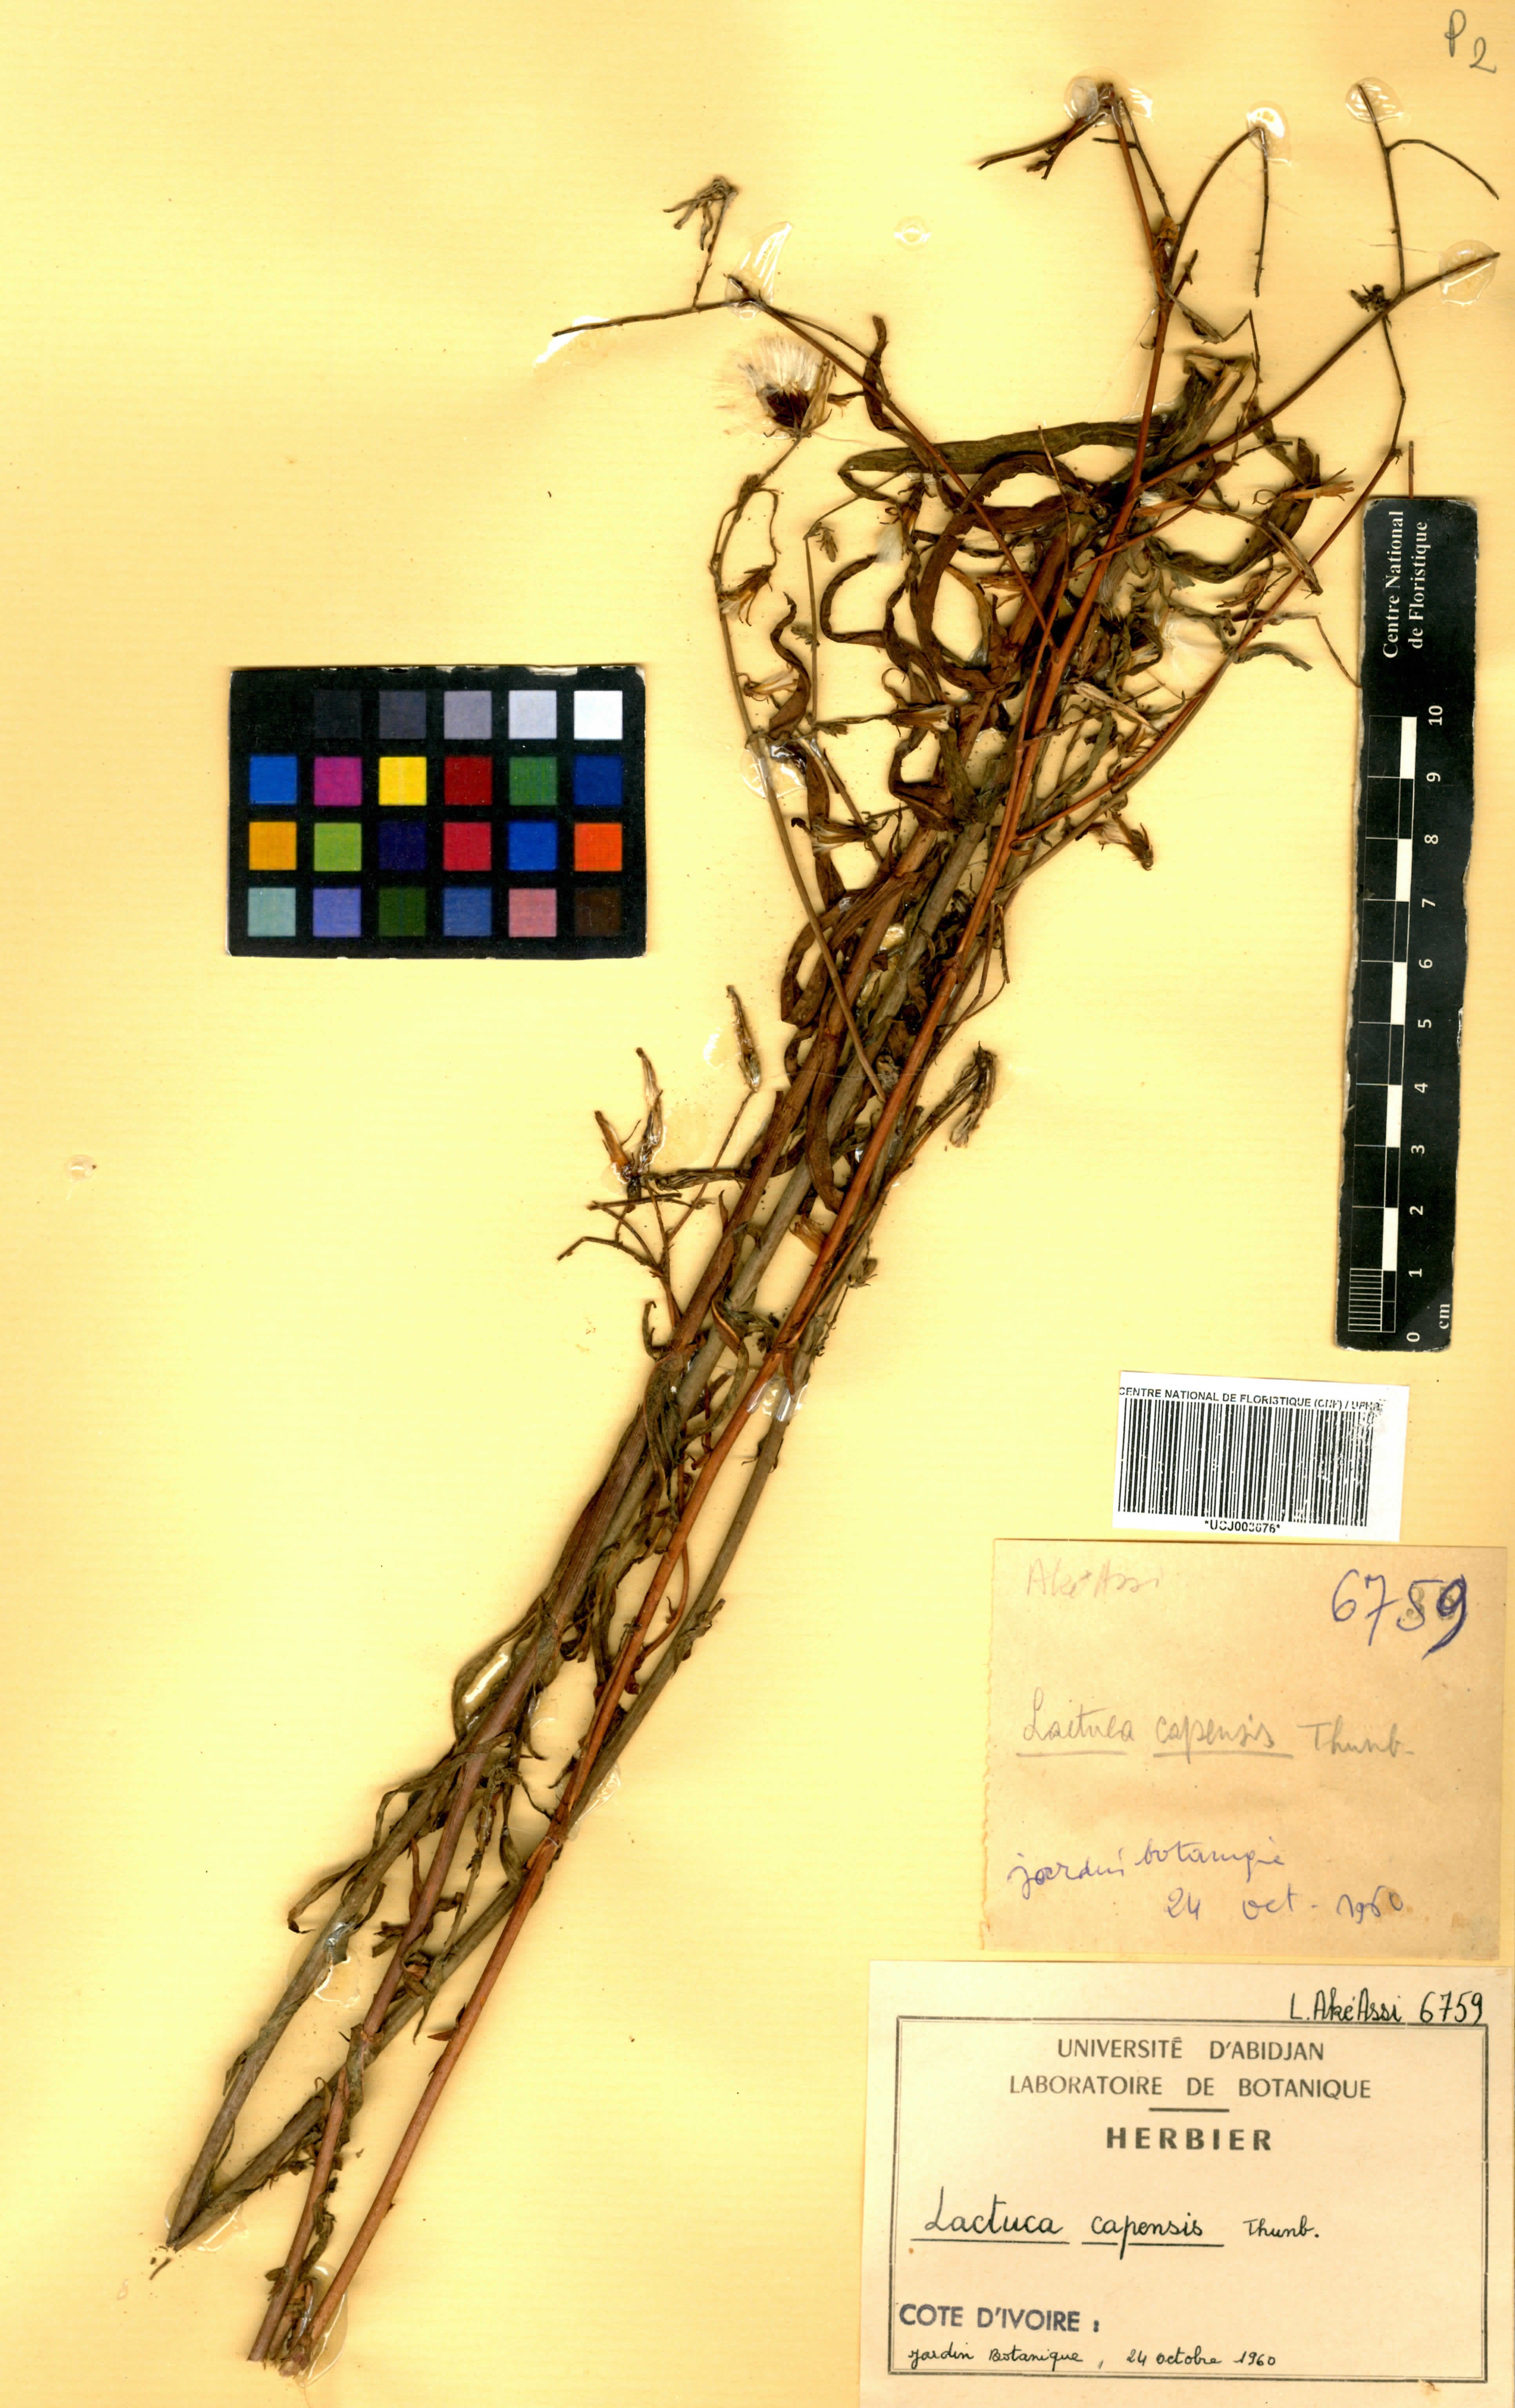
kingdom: Plantae
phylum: Tracheophyta
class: Magnoliopsida
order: Asterales
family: Asteraceae
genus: Lactuca
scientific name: Lactuca inermis
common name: Wild lettuce
